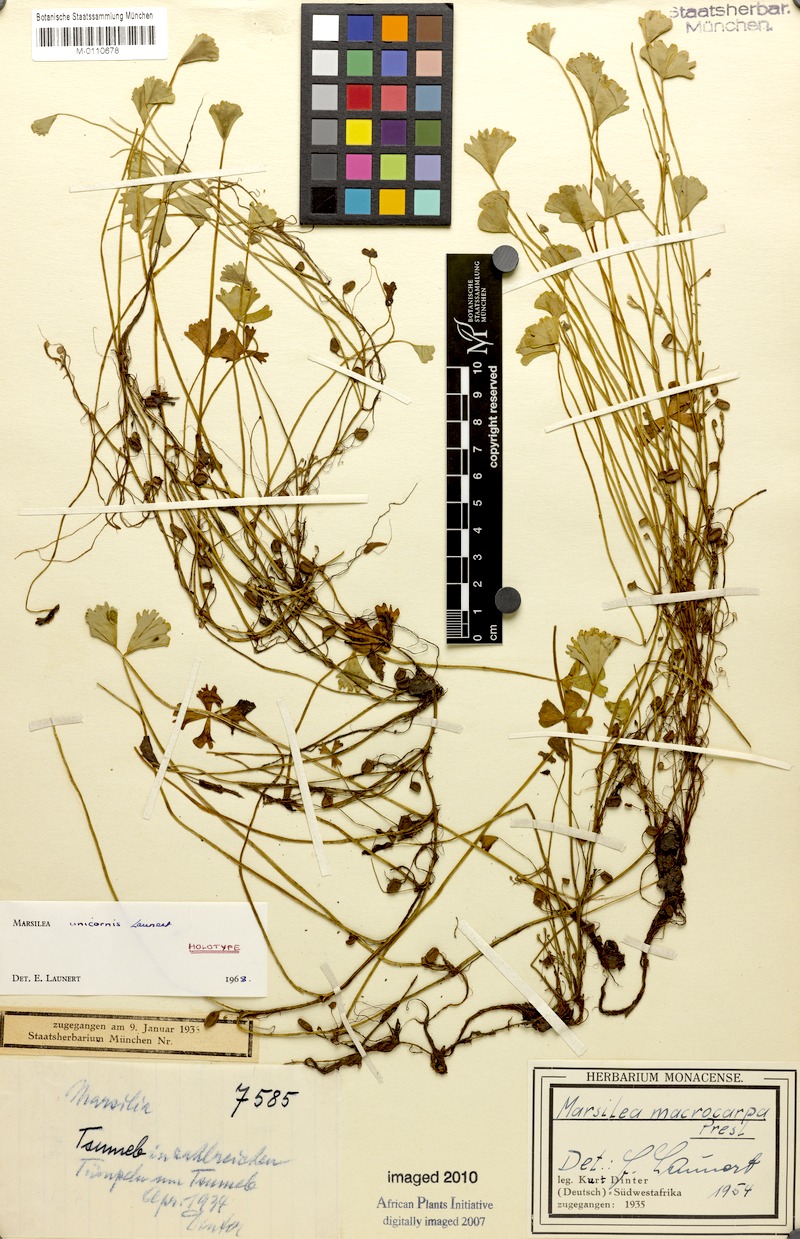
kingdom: Plantae
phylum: Tracheophyta
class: Polypodiopsida
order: Salviniales
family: Marsileaceae
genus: Marsilea
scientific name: Marsilea unicornis
